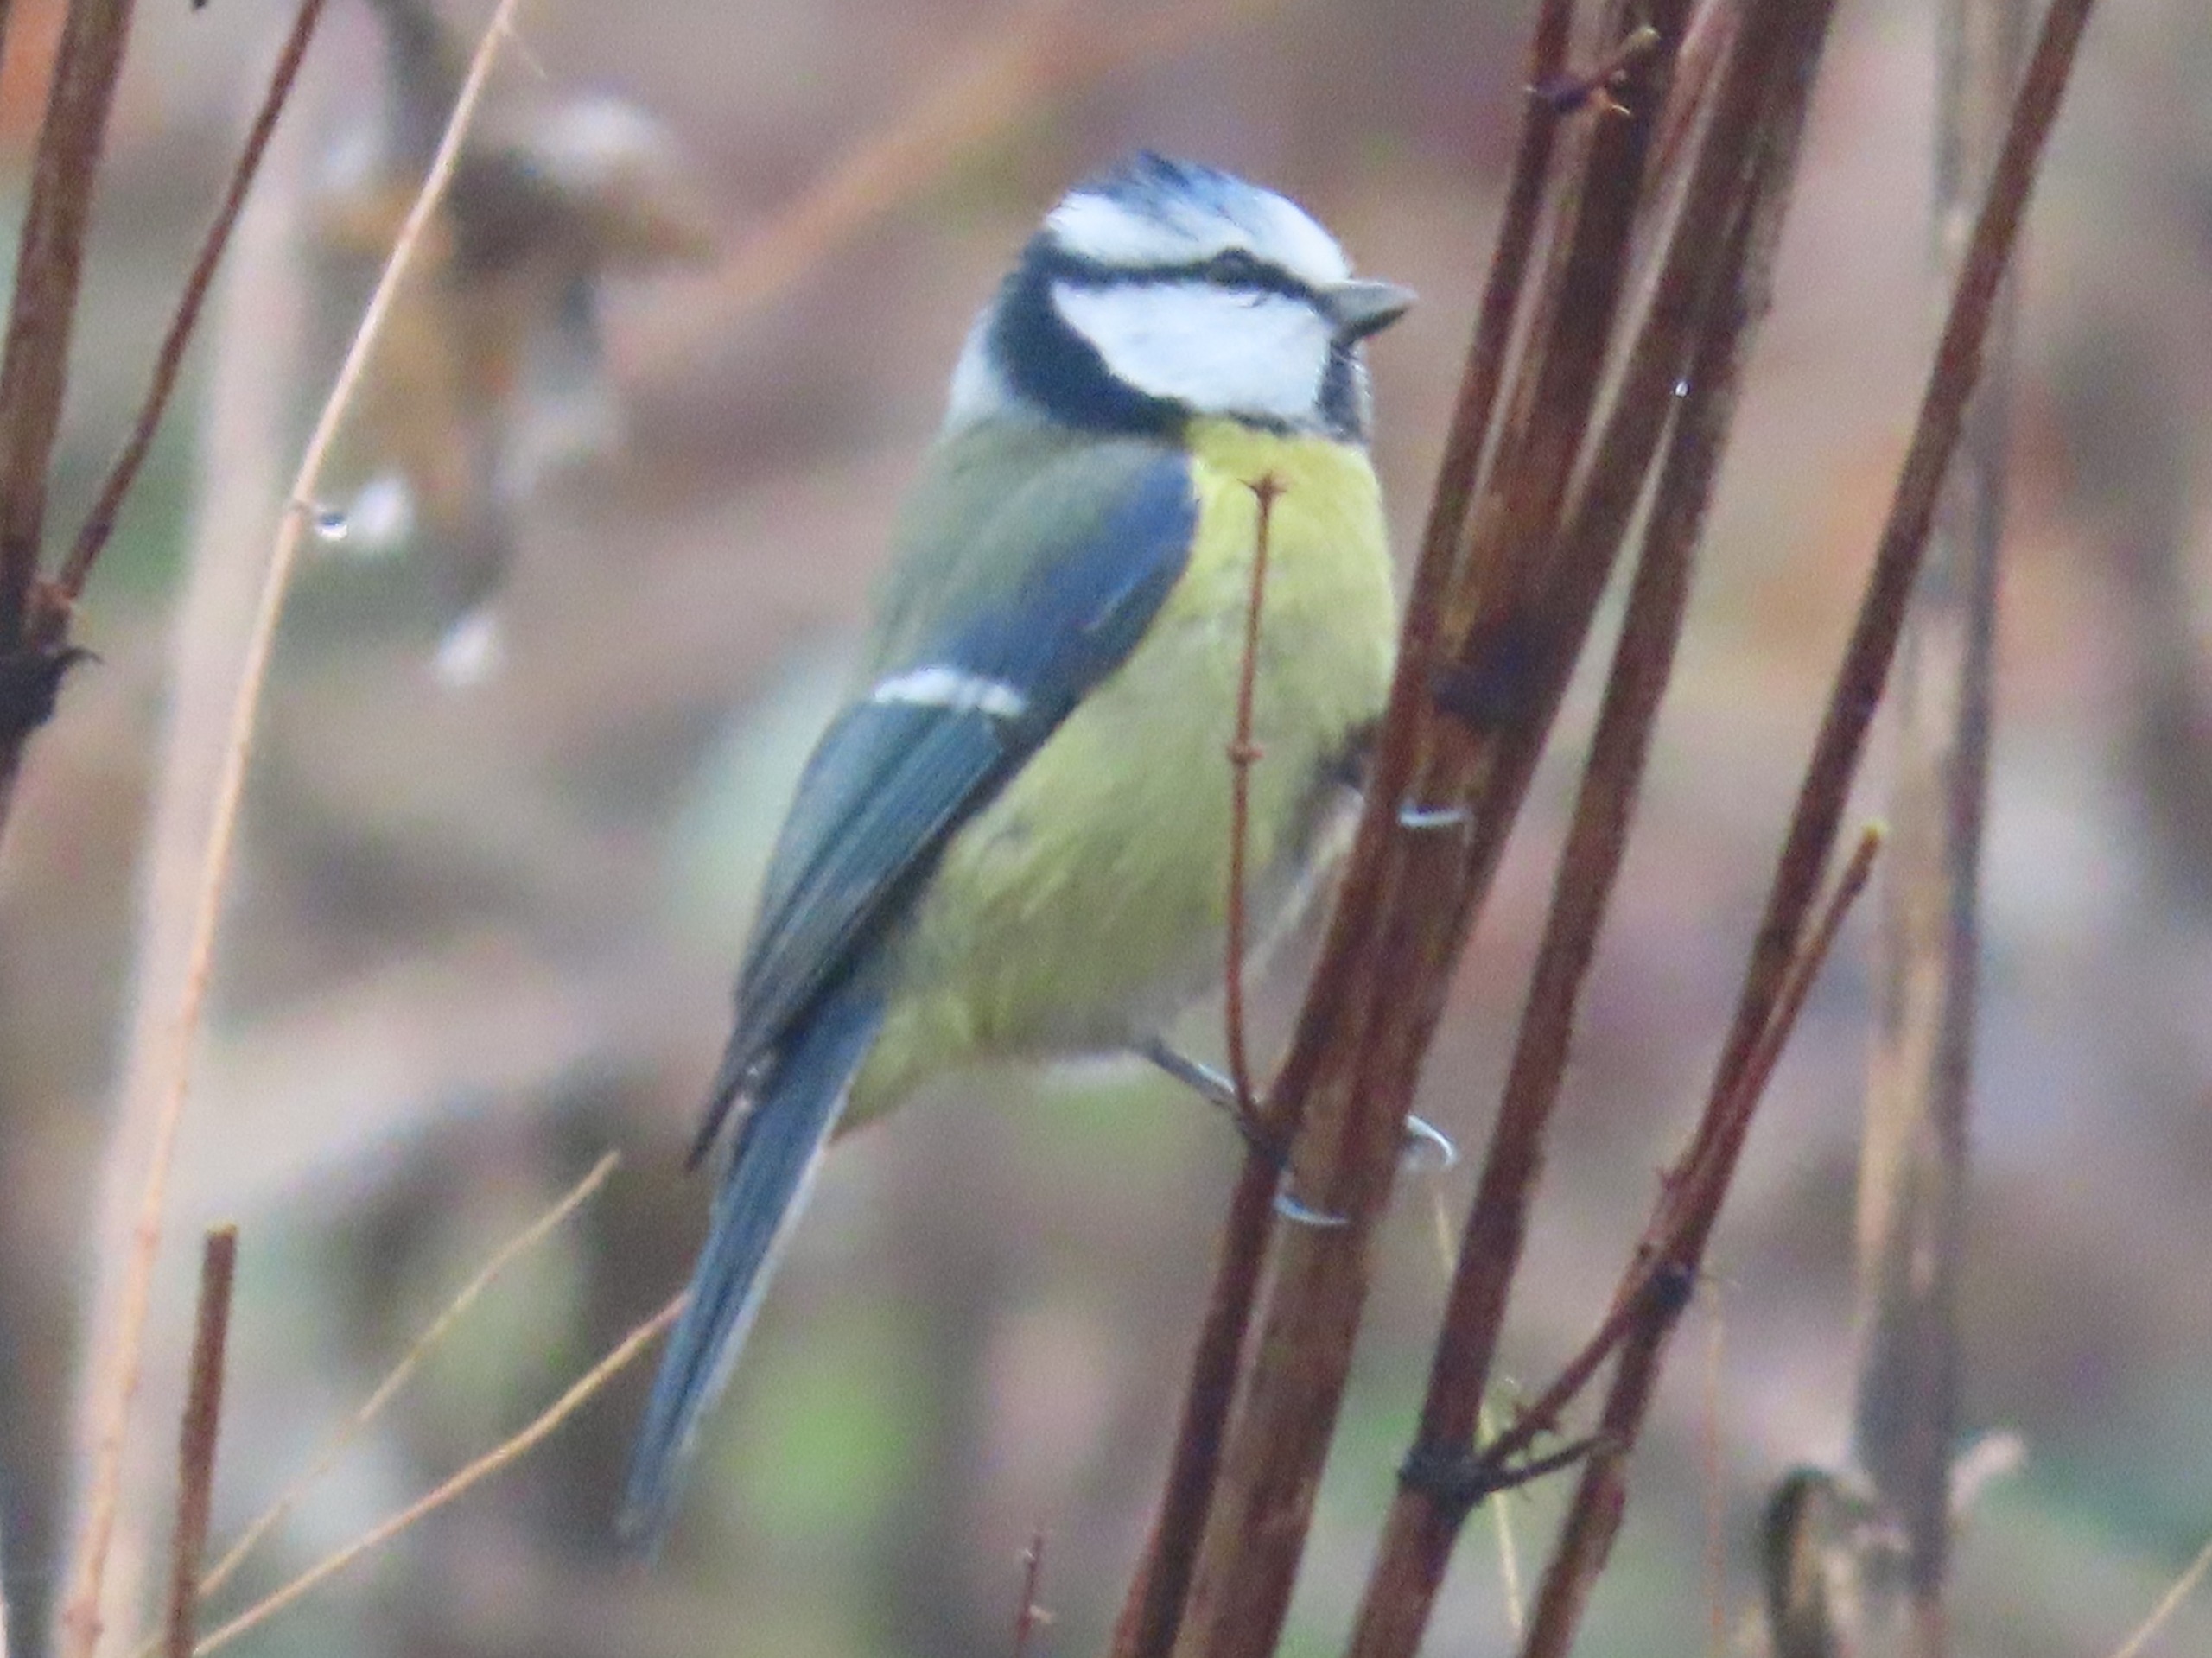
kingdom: Animalia
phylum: Chordata
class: Aves
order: Passeriformes
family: Paridae
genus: Cyanistes
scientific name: Cyanistes caeruleus
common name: Blåmejse
